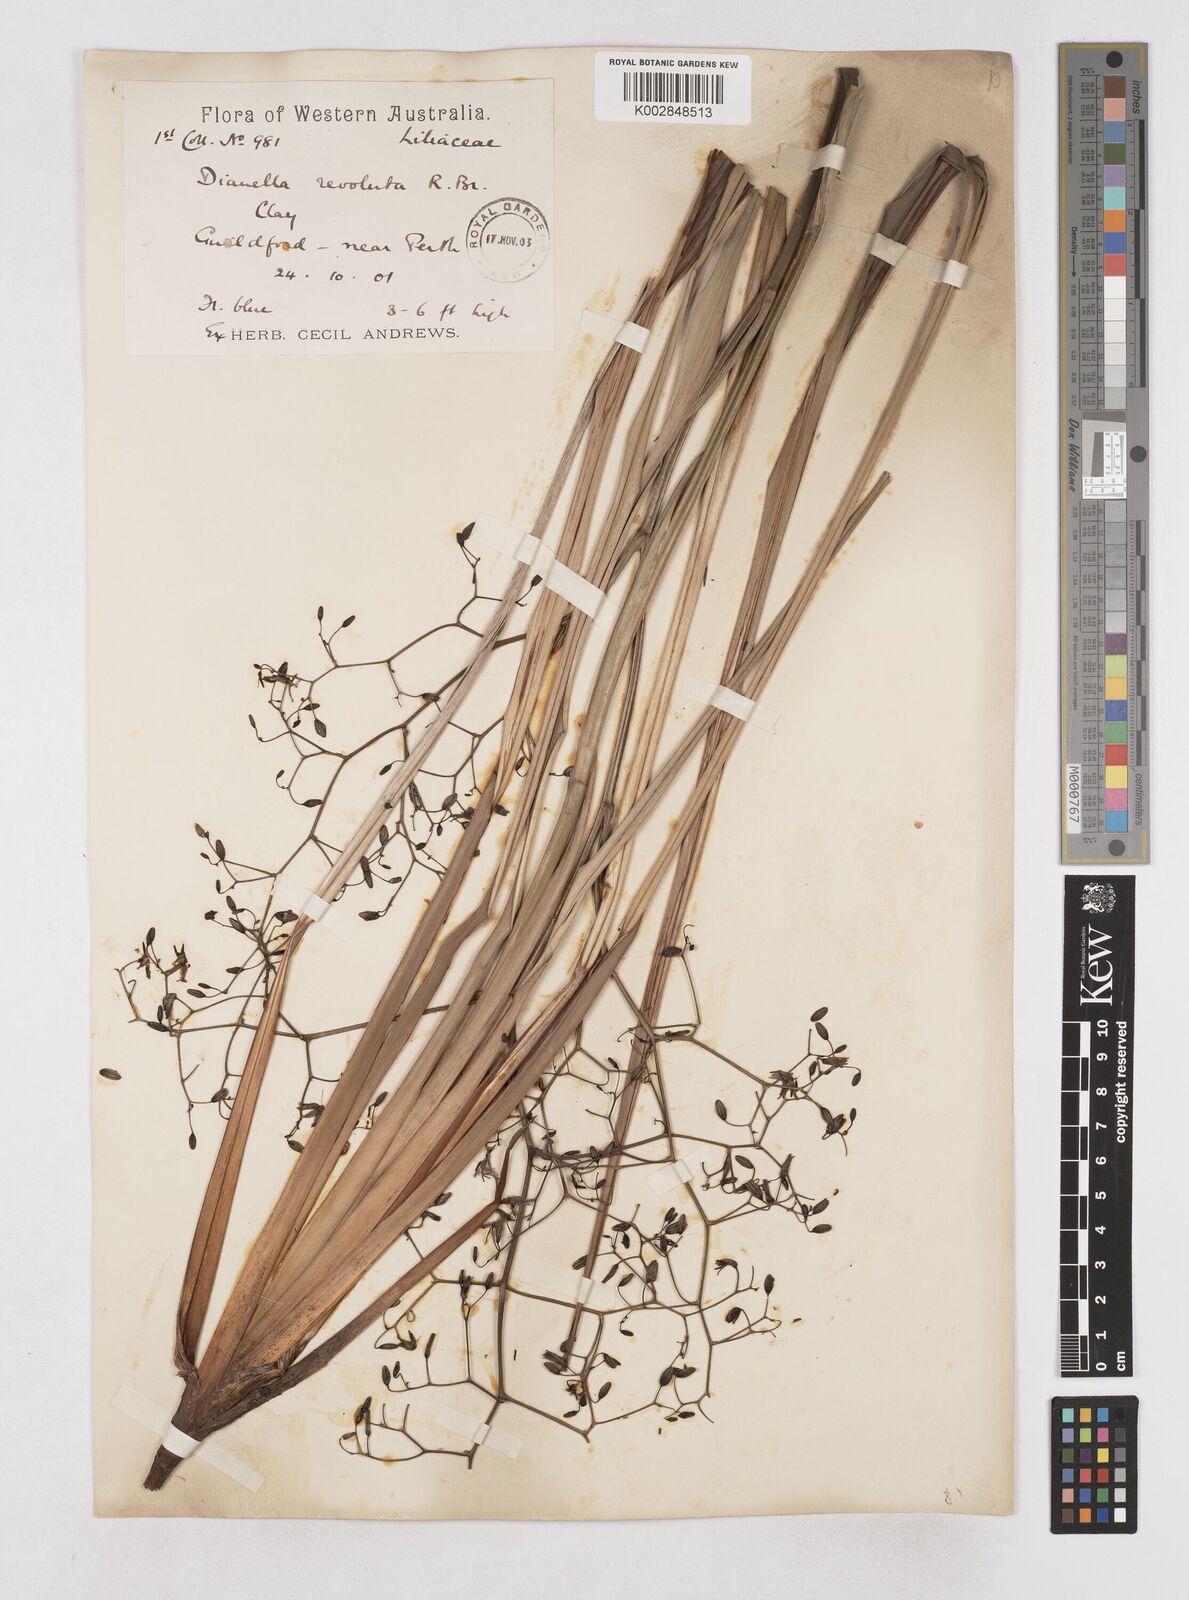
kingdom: Plantae
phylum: Tracheophyta
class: Liliopsida
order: Asparagales
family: Asphodelaceae
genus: Dianella
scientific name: Dianella revoluta
